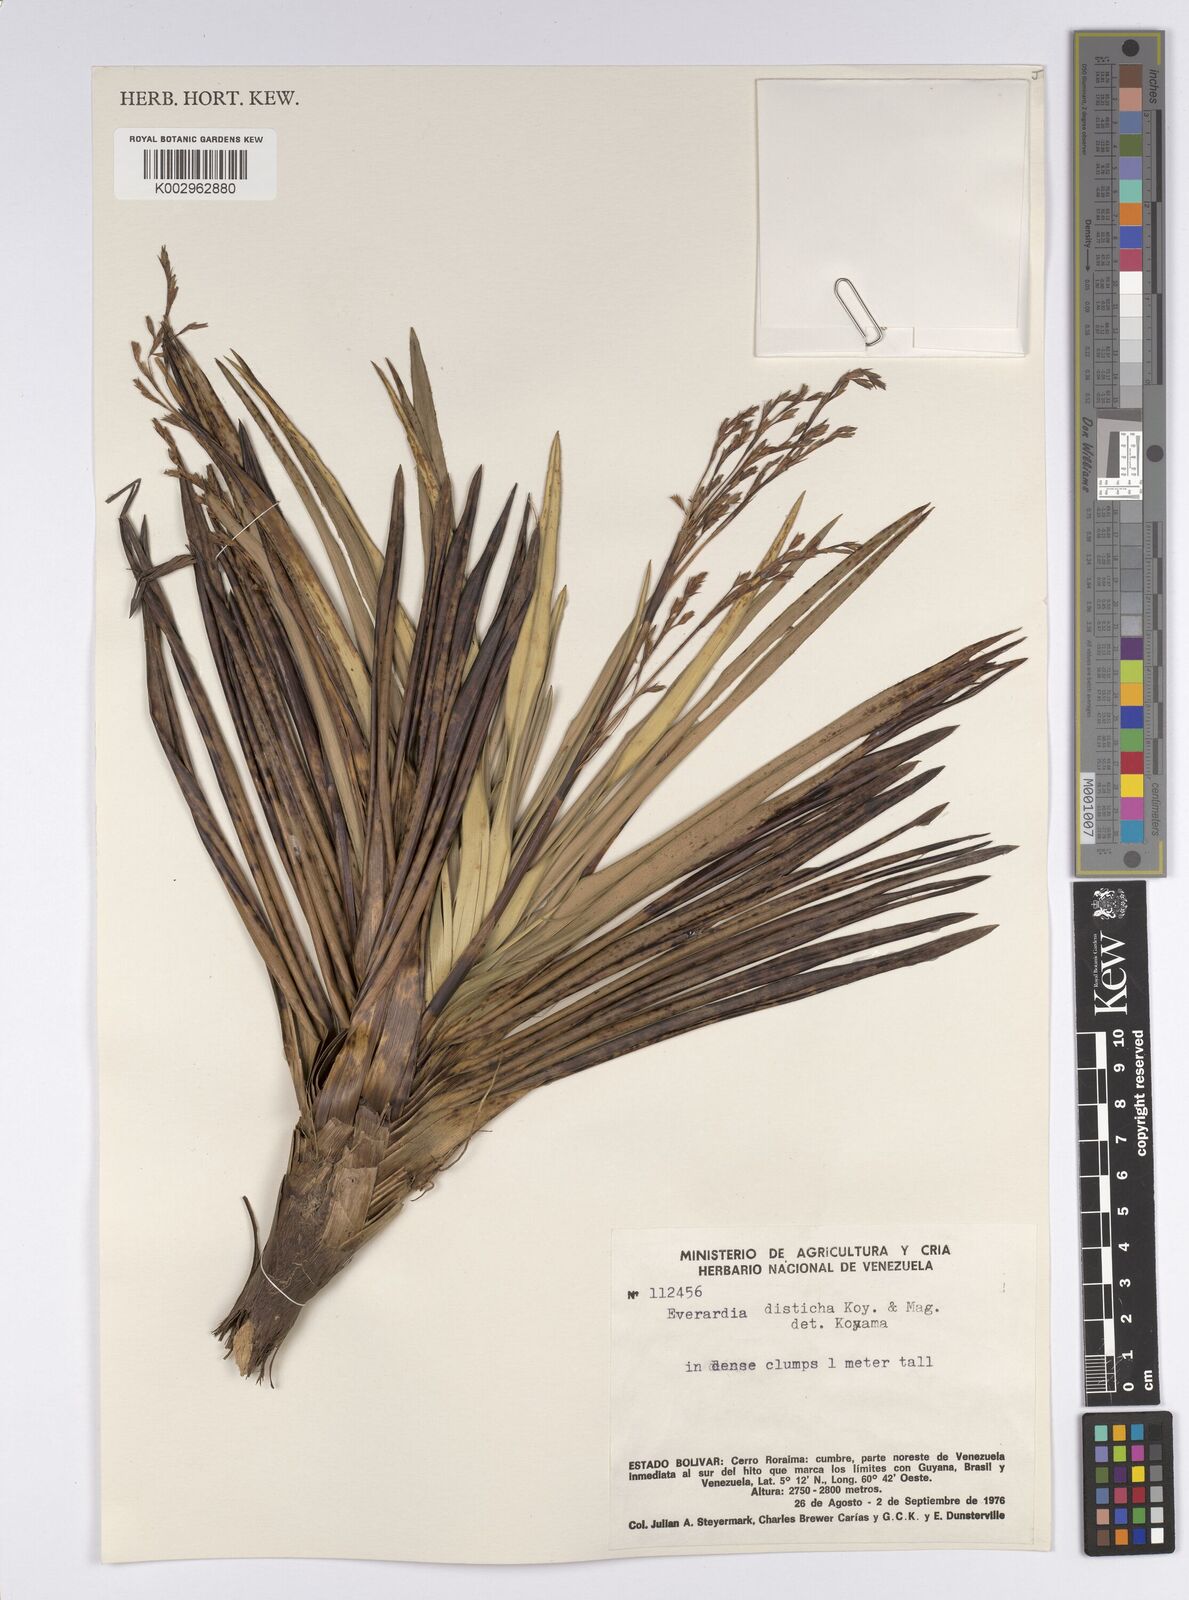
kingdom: Plantae
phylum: Tracheophyta
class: Liliopsida
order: Poales
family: Cyperaceae
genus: Cephalocarpus
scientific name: Cephalocarpus distichus
